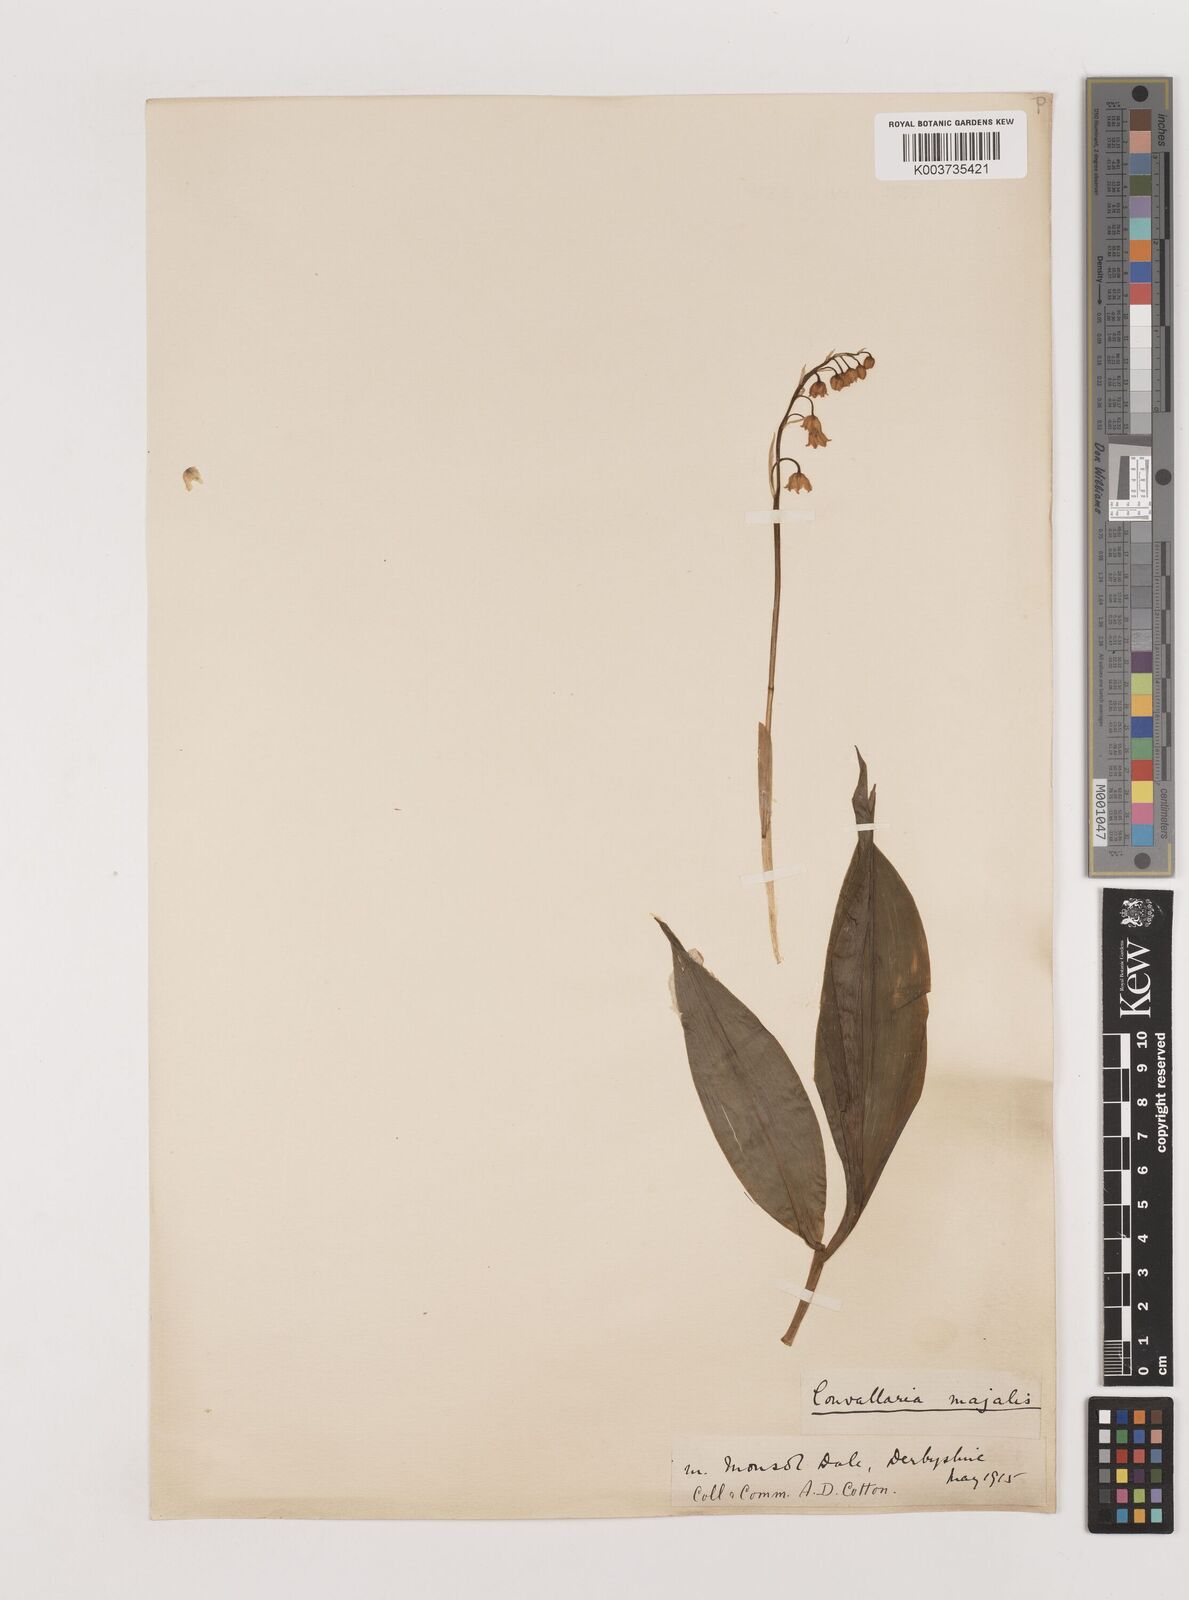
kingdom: Plantae
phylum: Tracheophyta
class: Liliopsida
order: Asparagales
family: Asparagaceae
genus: Convallaria
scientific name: Convallaria majalis
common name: Lily-of-the-valley
